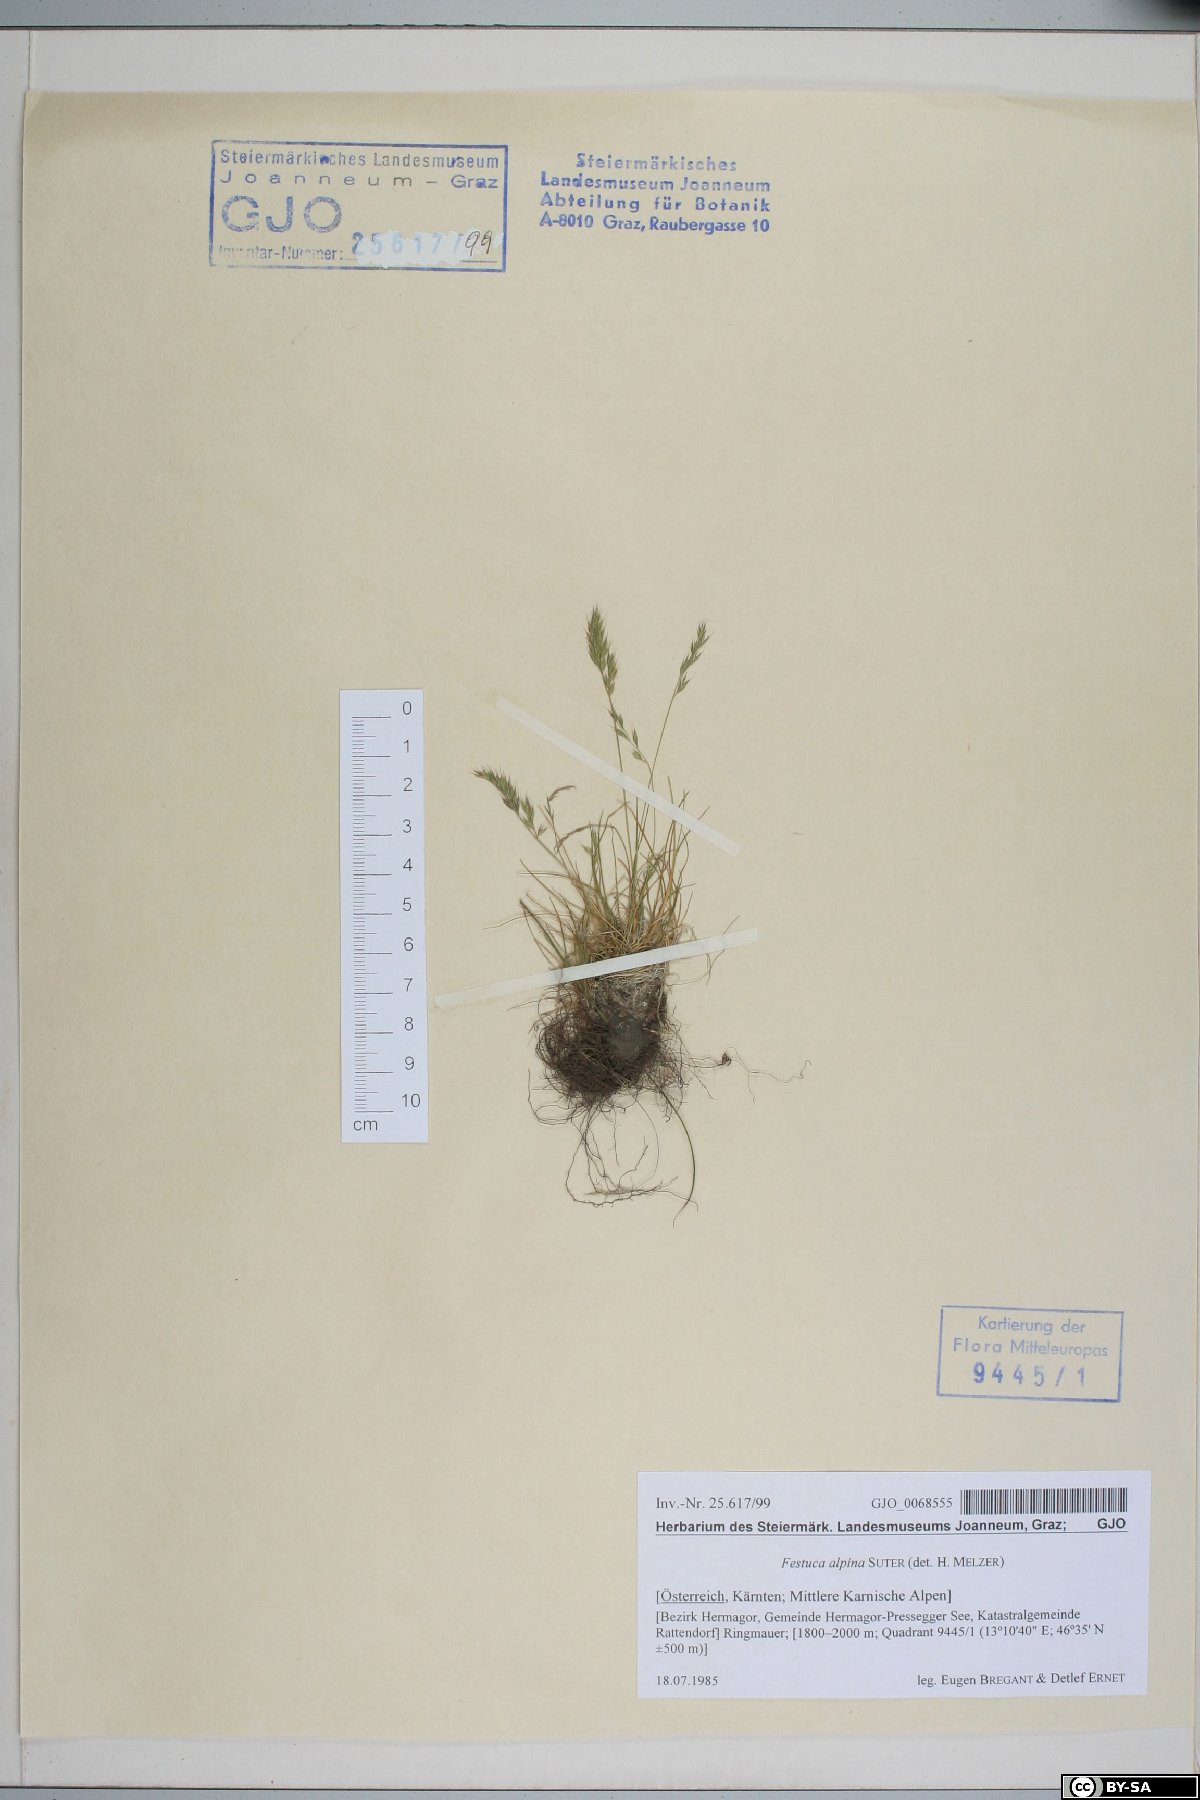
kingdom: Plantae
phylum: Tracheophyta
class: Liliopsida
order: Poales
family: Poaceae
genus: Festuca
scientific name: Festuca alpina
